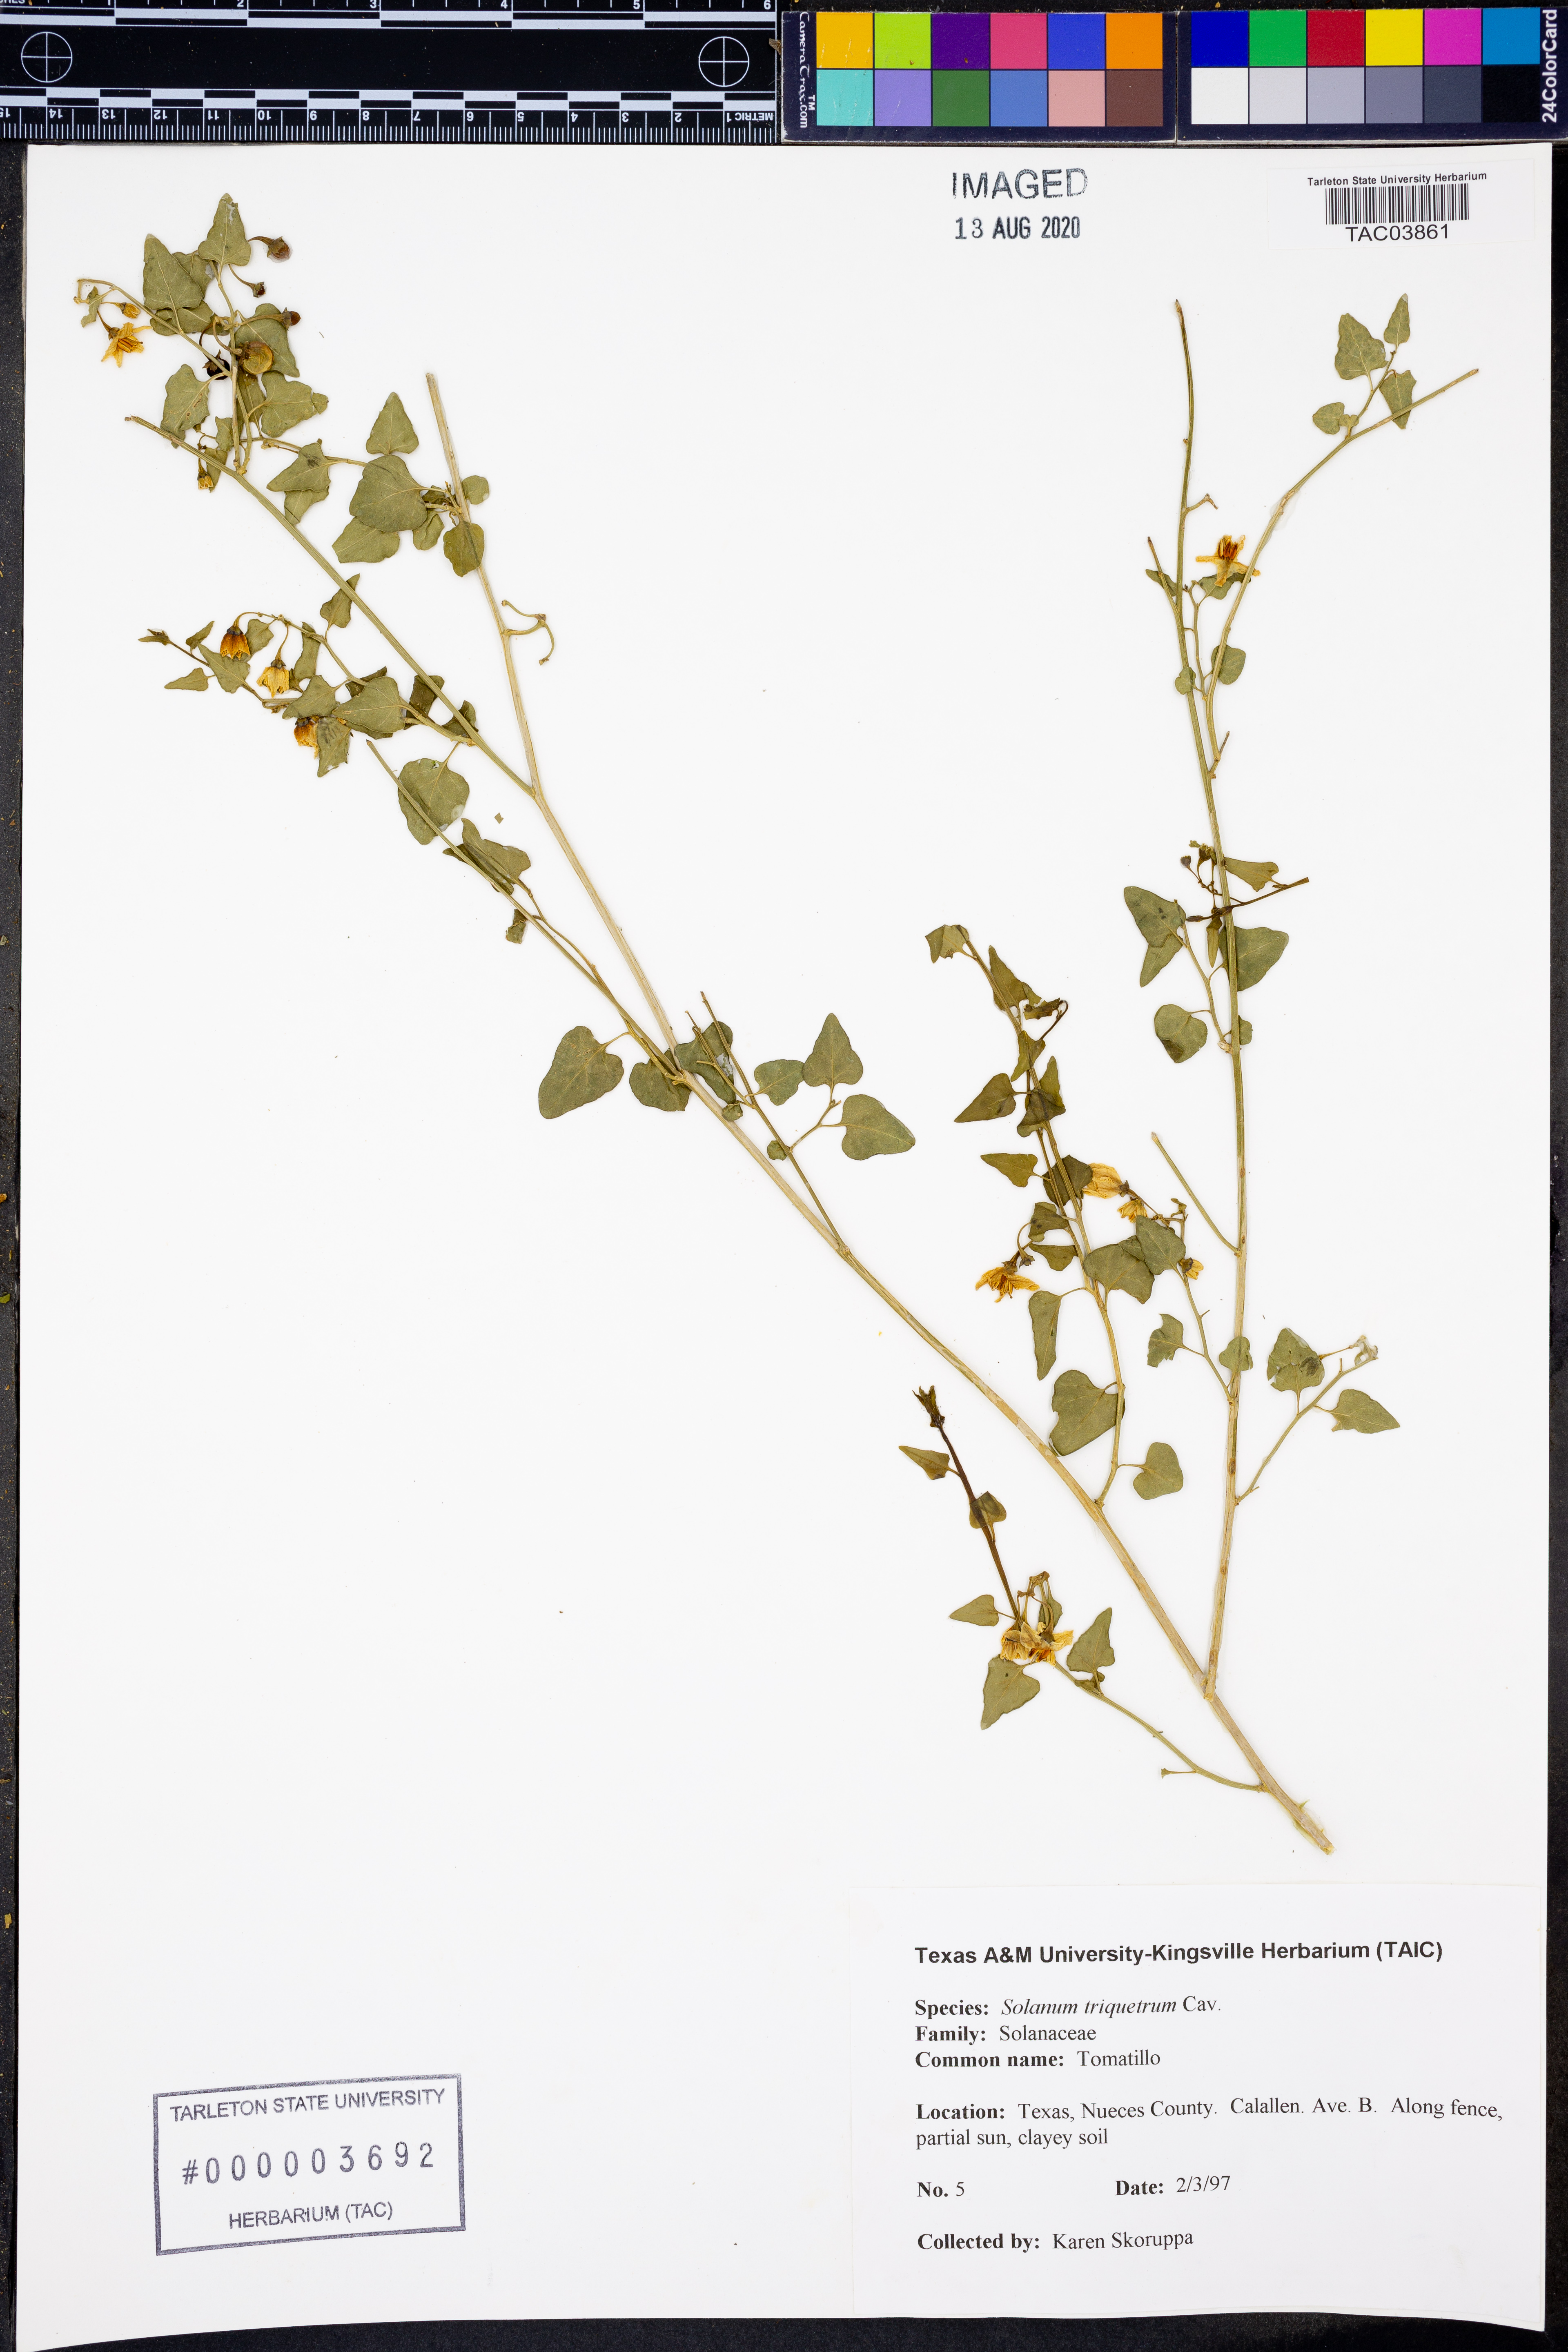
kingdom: Plantae
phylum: Tracheophyta
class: Magnoliopsida
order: Solanales
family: Solanaceae
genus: Solanum
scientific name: Solanum triquetrum
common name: Texas nightshade
